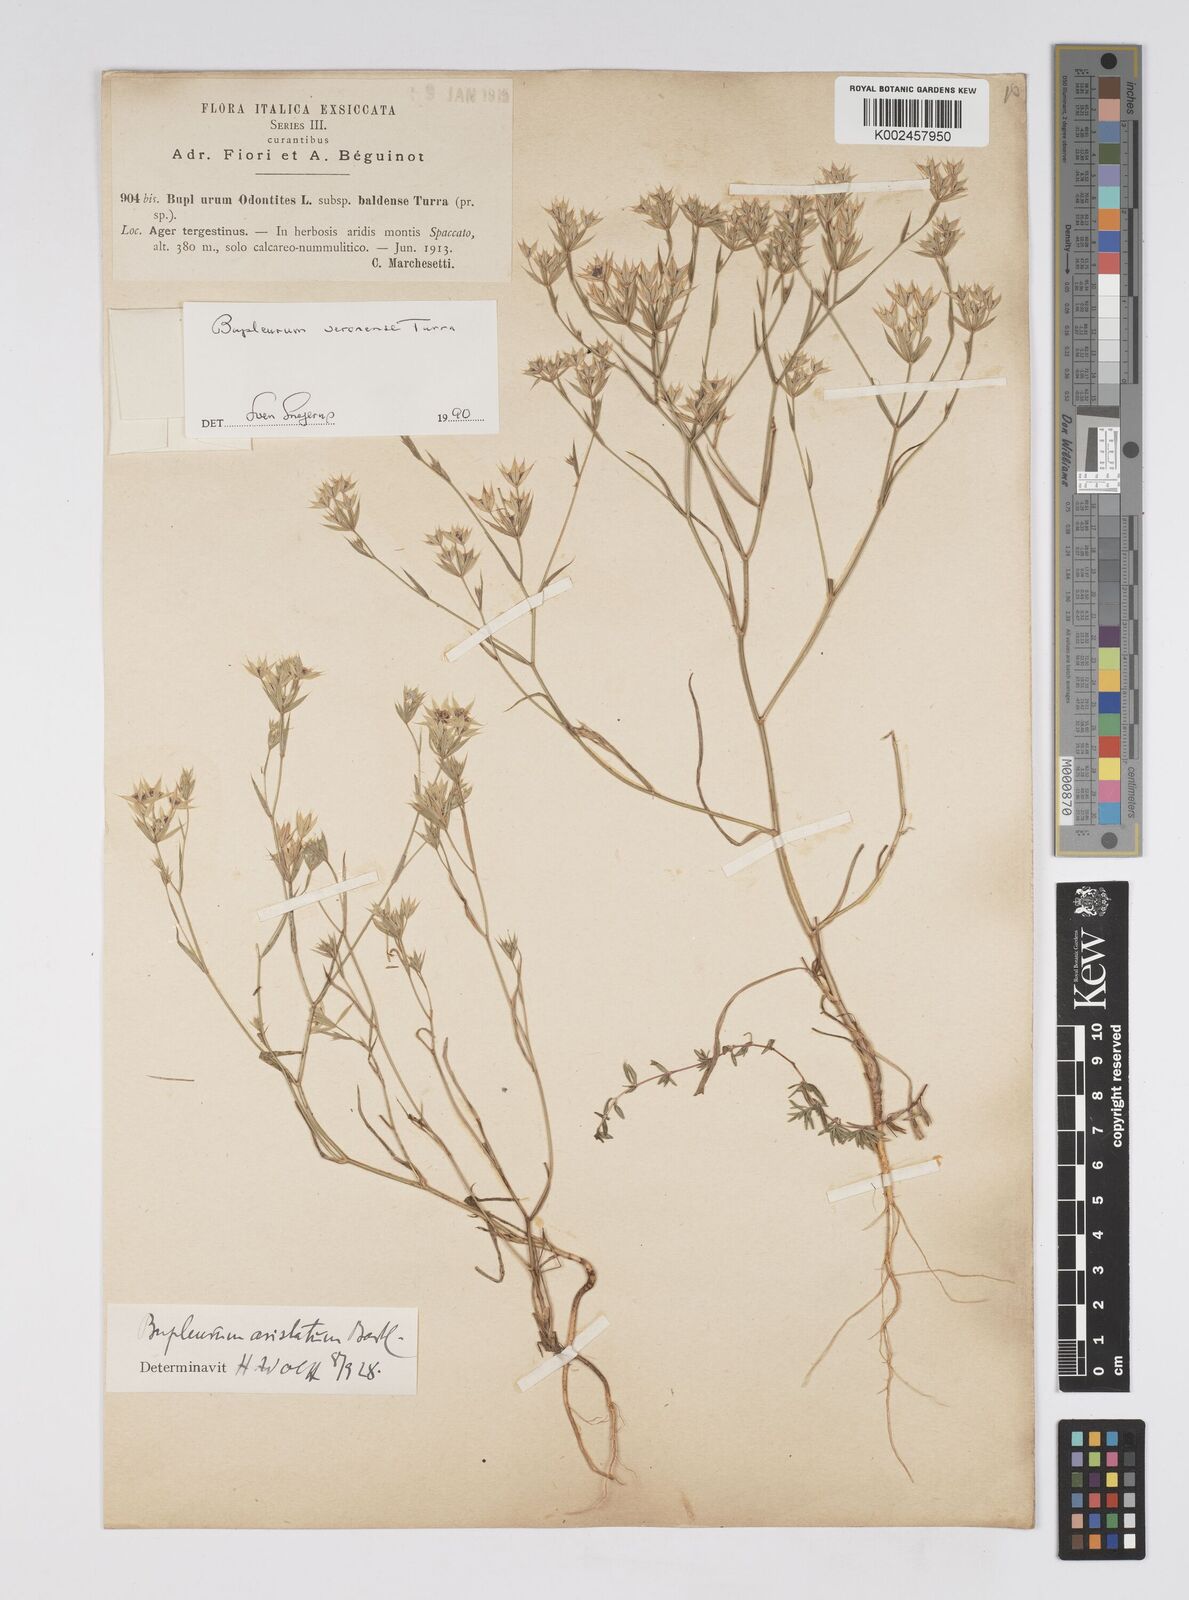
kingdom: Plantae
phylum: Tracheophyta
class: Magnoliopsida
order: Apiales
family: Apiaceae
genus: Bupleurum
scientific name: Bupleurum glumaceum
